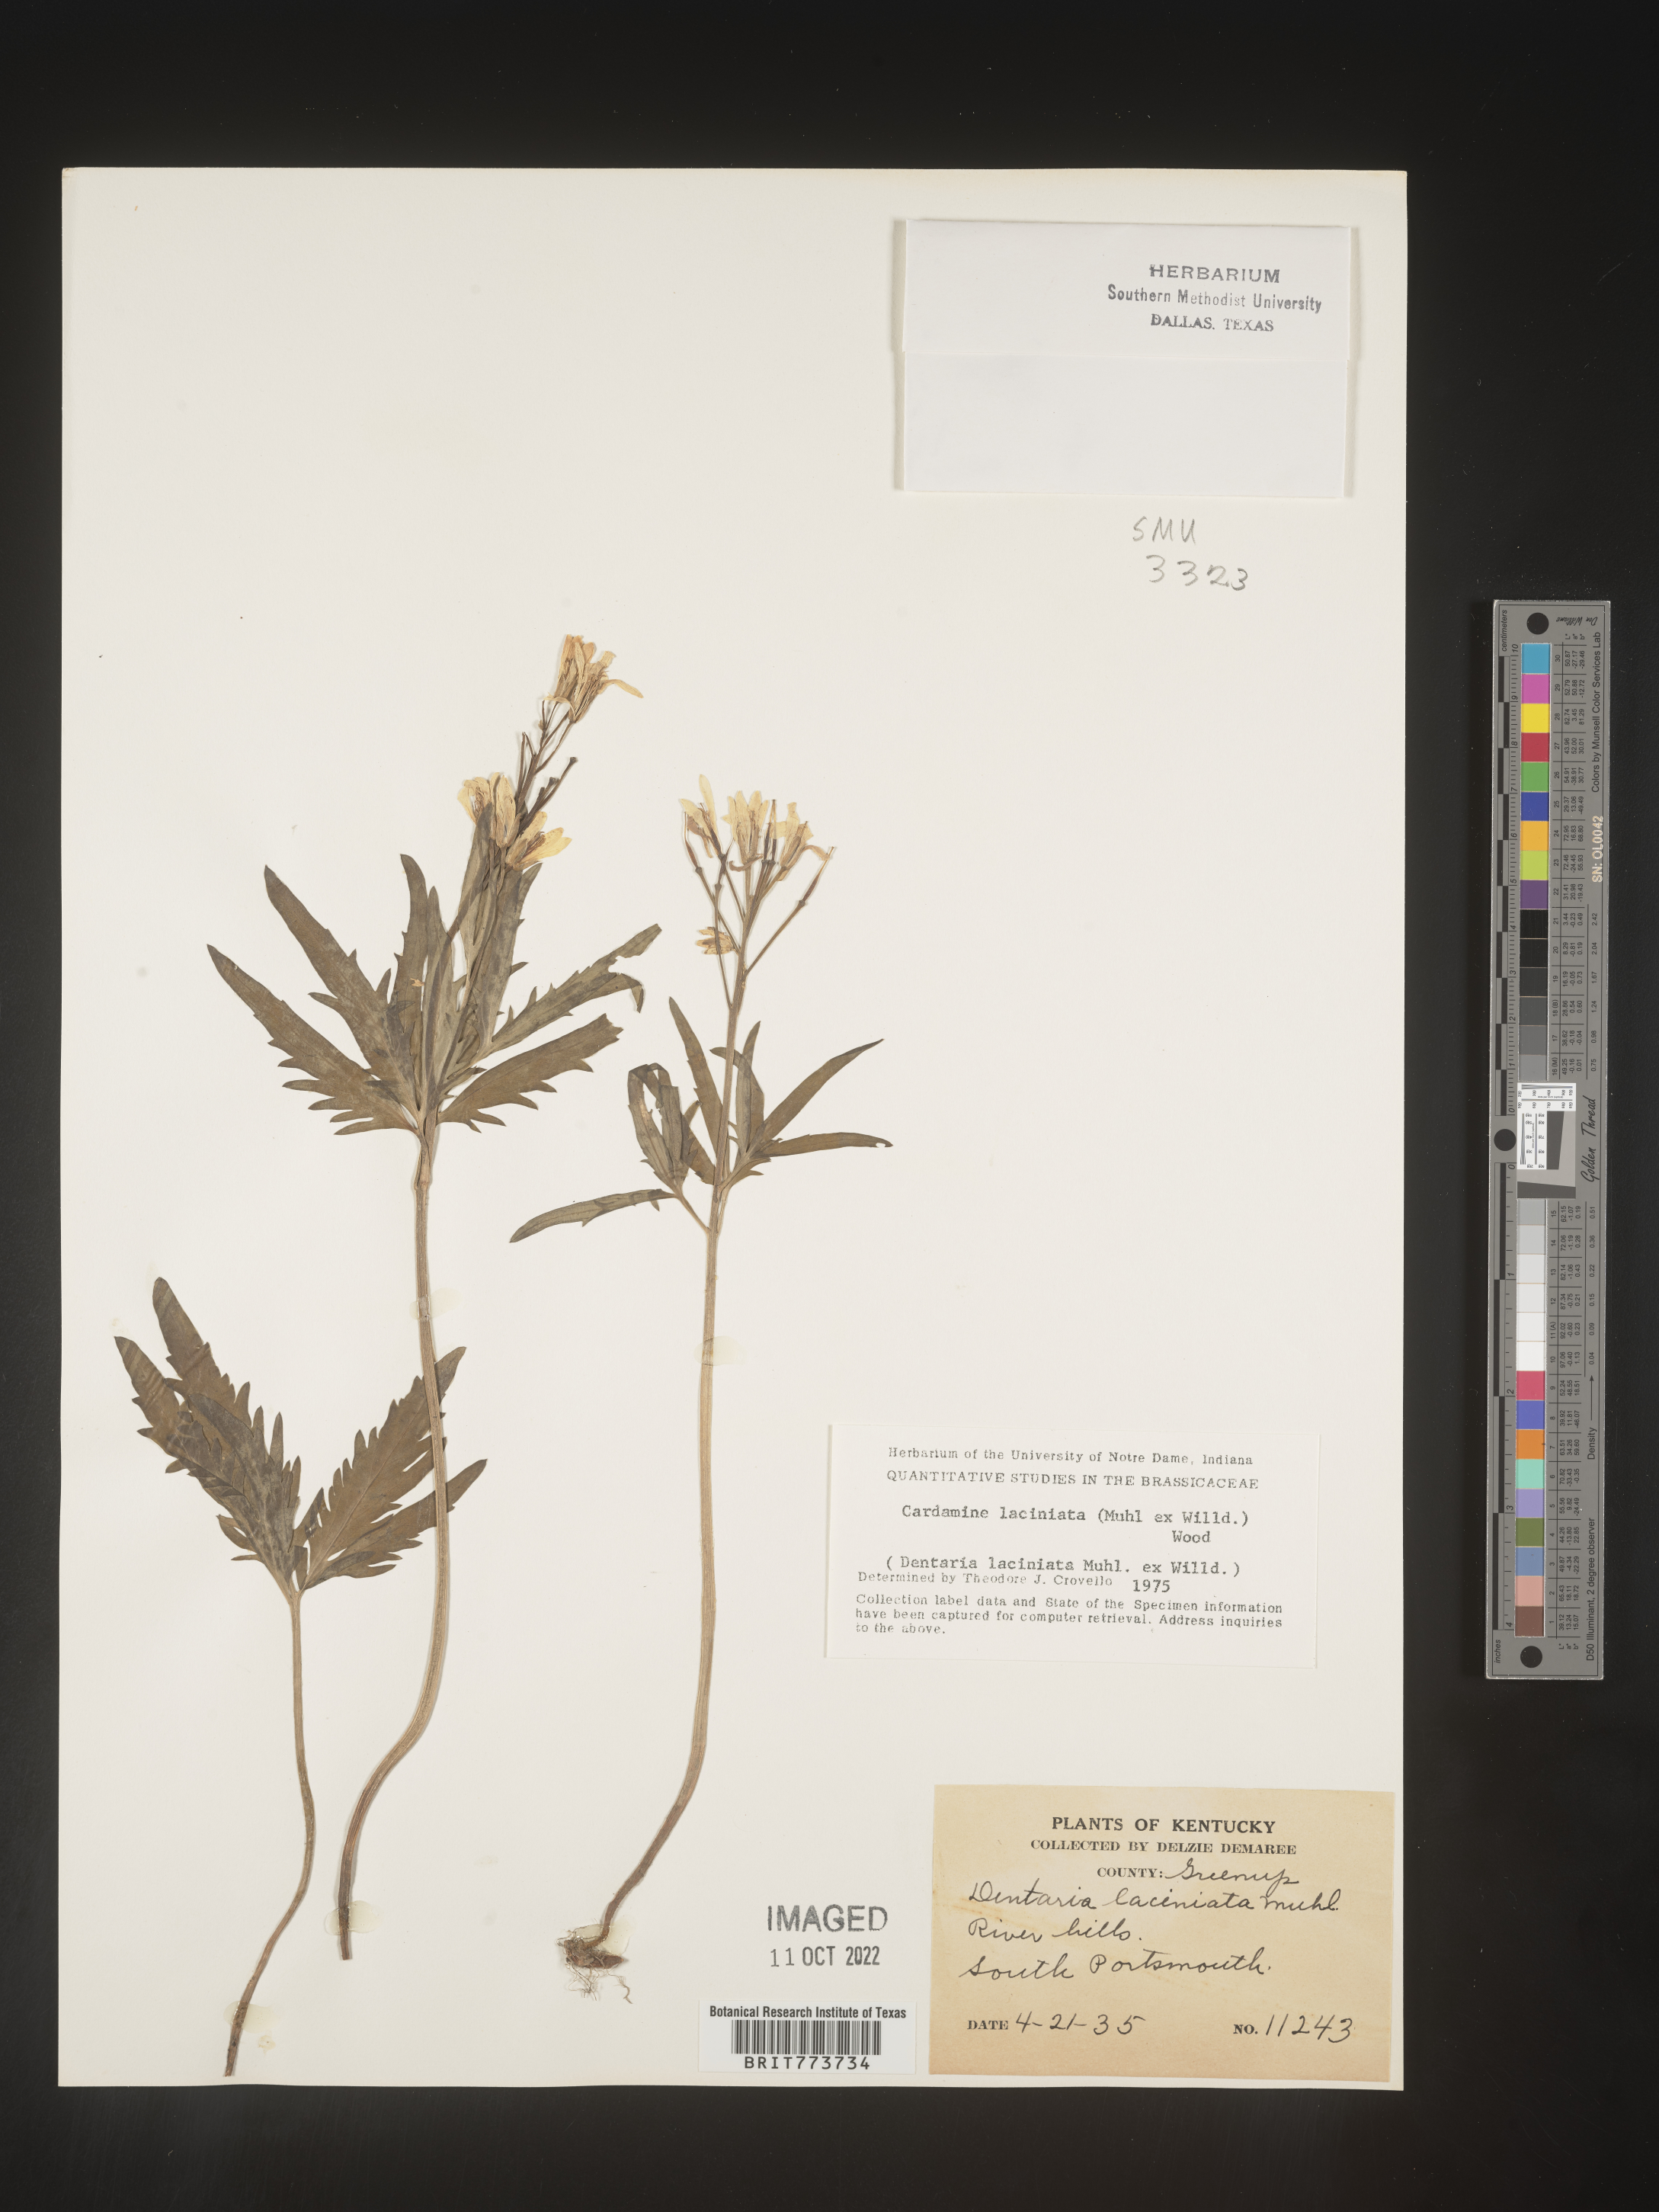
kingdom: Plantae
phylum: Tracheophyta
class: Magnoliopsida
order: Brassicales
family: Brassicaceae
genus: Rorippa
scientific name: Rorippa laciniata
